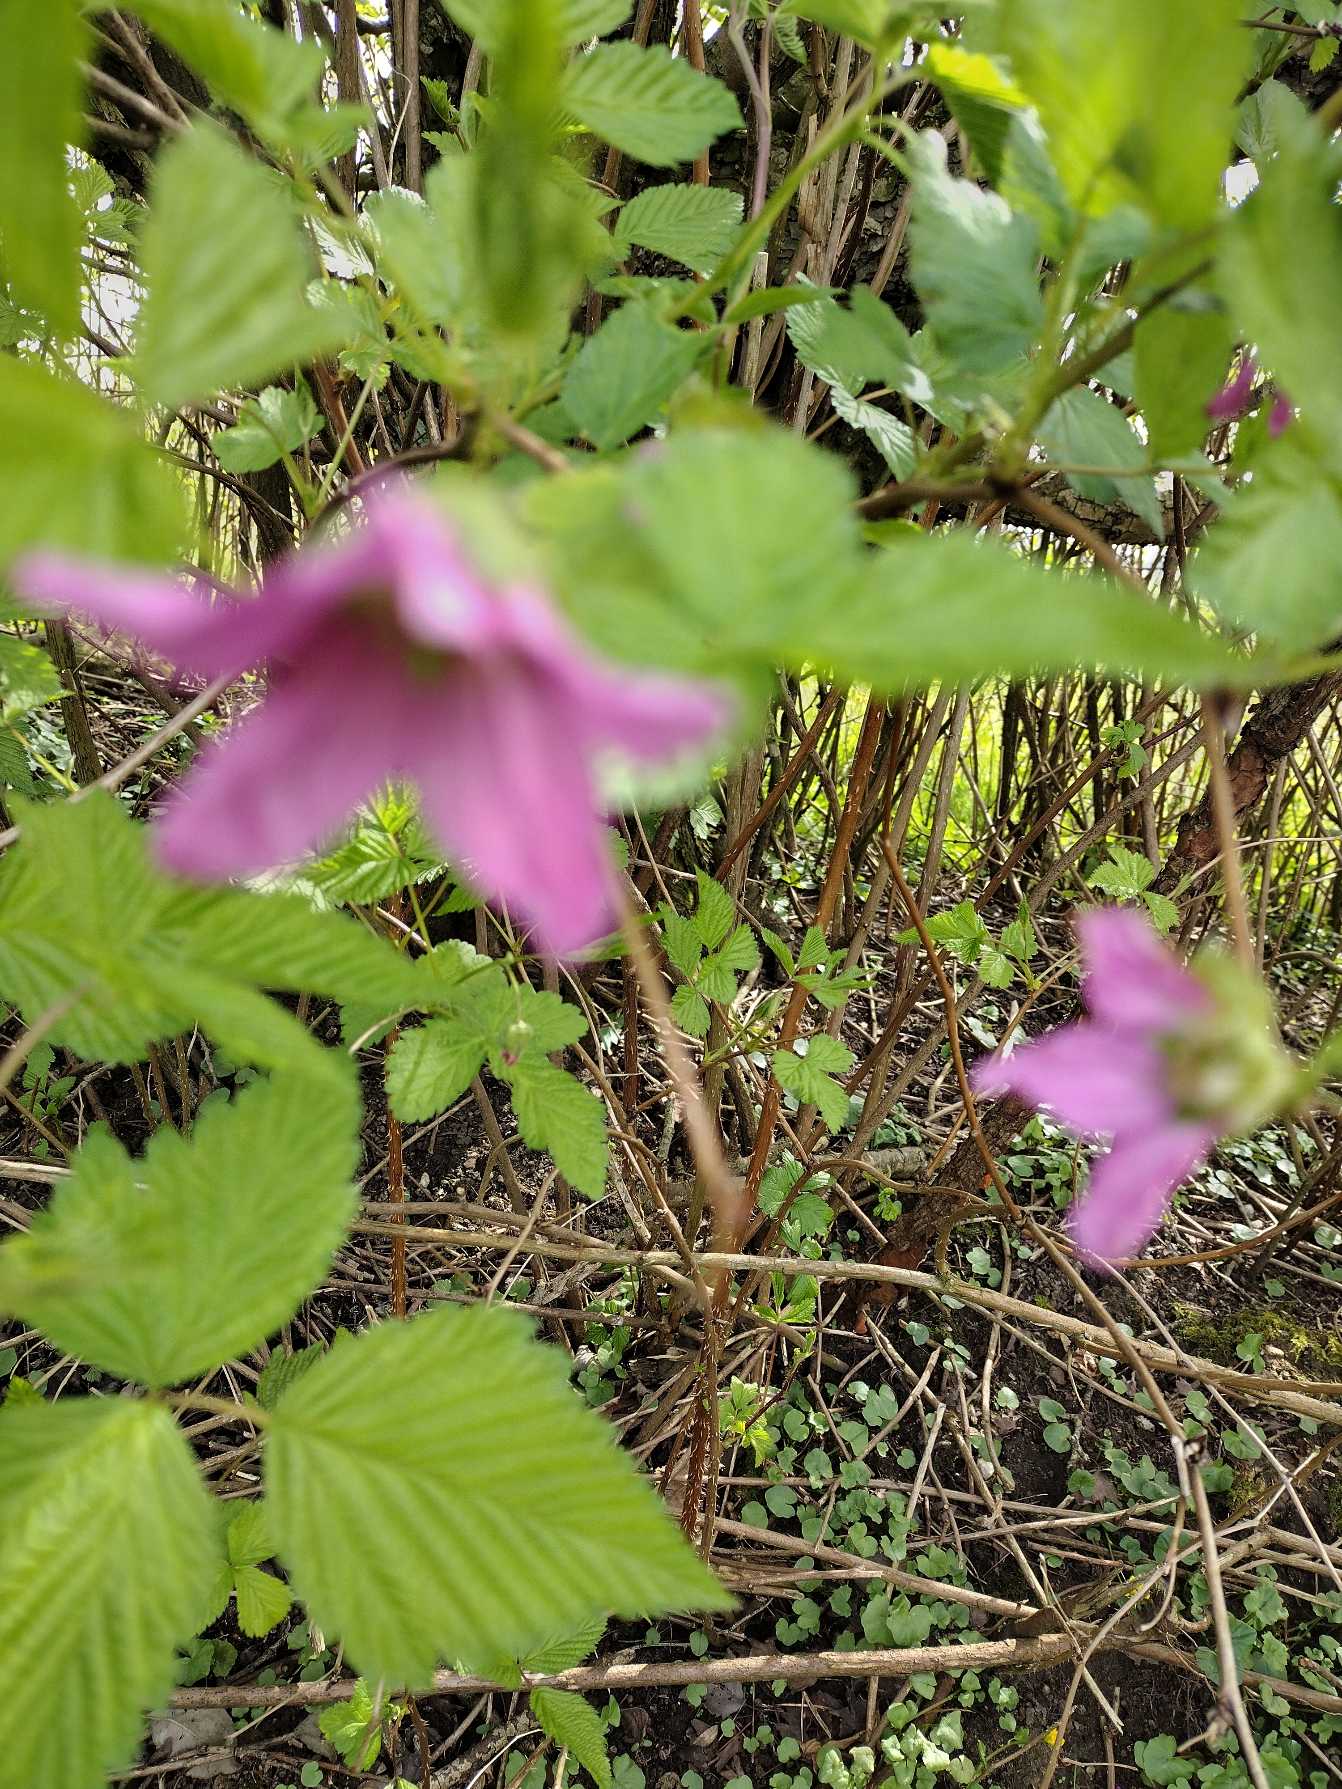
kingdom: Plantae
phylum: Tracheophyta
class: Magnoliopsida
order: Rosales
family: Rosaceae
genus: Rubus
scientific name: Rubus spectabilis
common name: Laksebær
